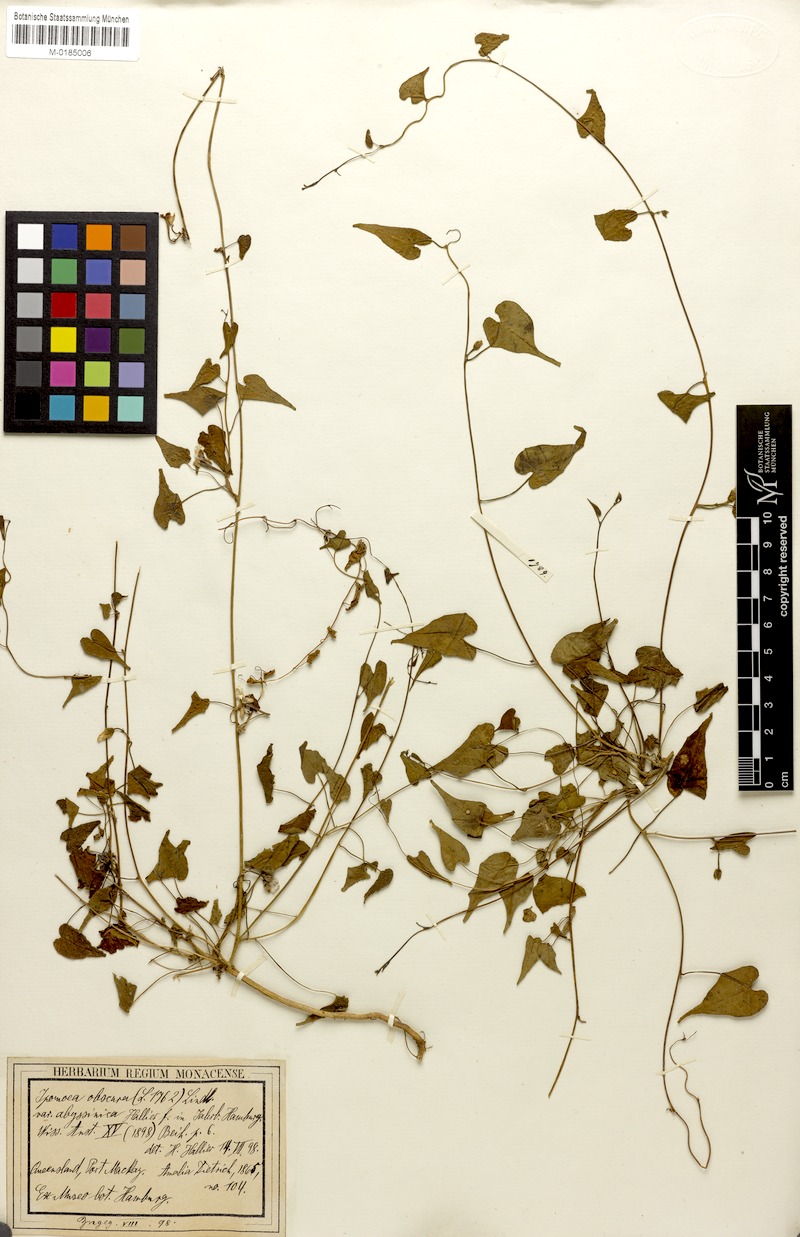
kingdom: Plantae
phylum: Tracheophyta
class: Magnoliopsida
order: Solanales
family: Convolvulaceae
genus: Ipomoea
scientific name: Ipomoea obscura
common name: Obscure morning-glory
